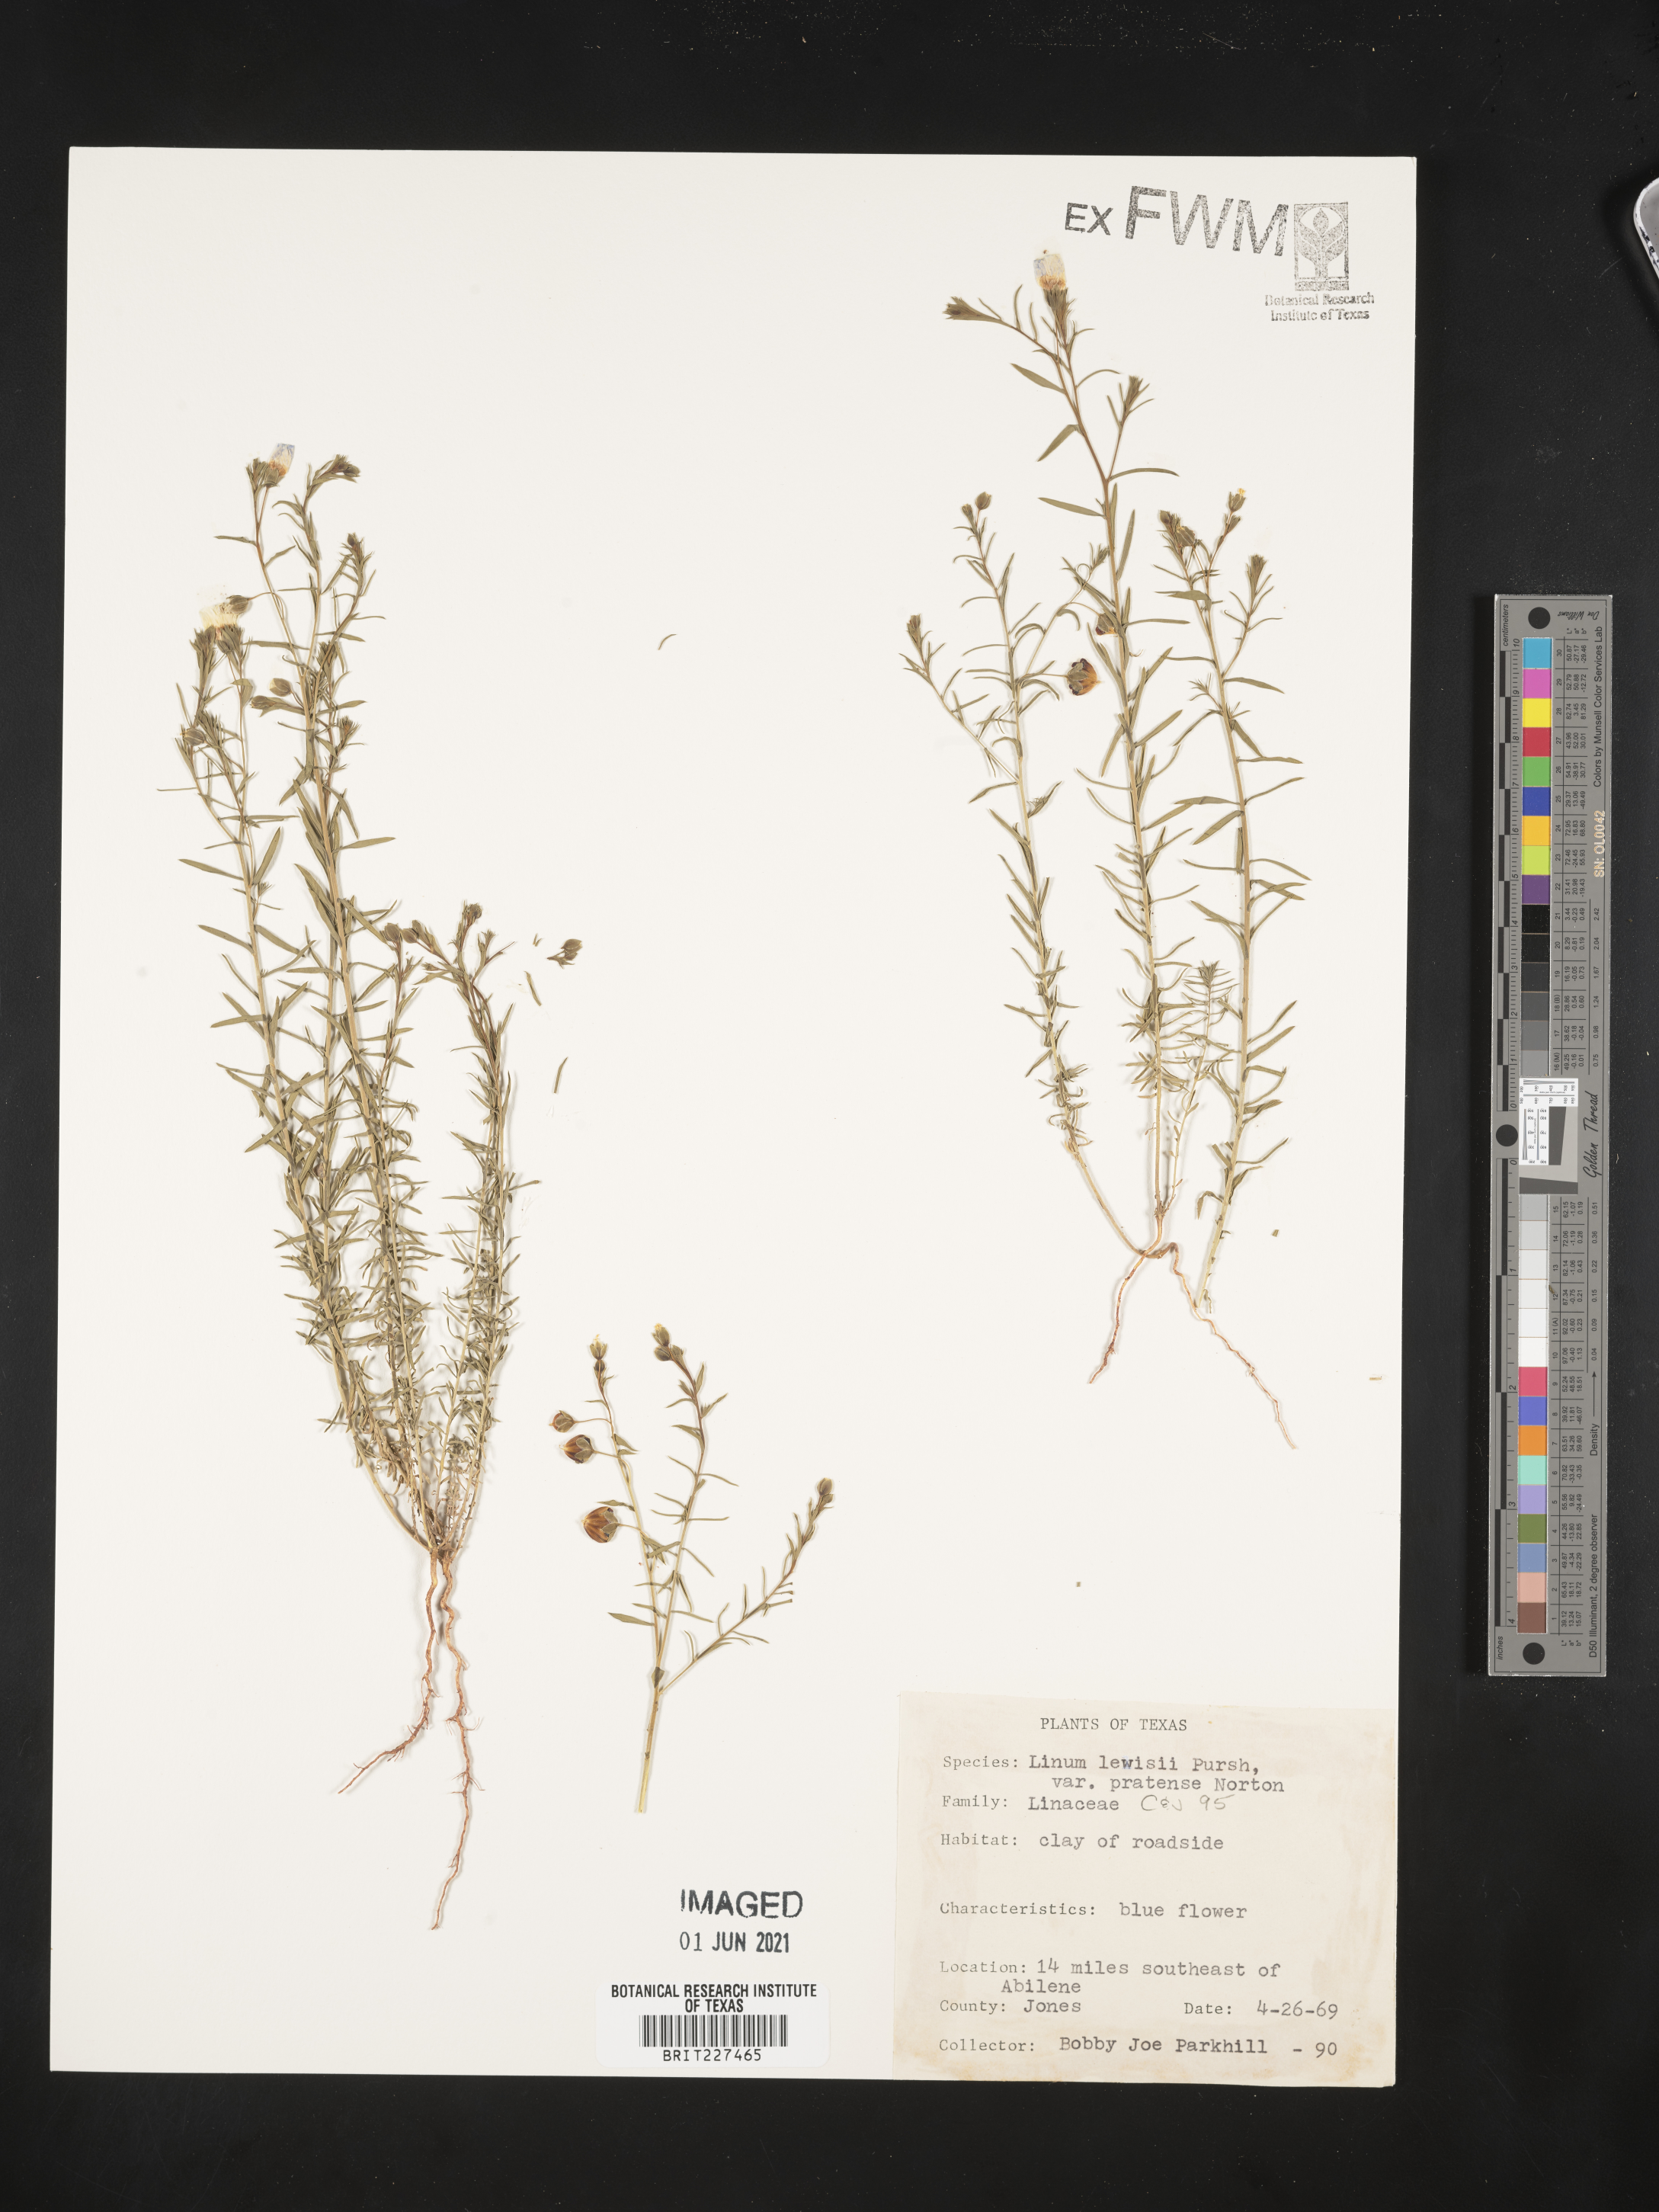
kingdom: Plantae
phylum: Tracheophyta
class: Magnoliopsida
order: Malpighiales
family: Linaceae
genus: Linum
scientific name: Linum pratense
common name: Norton's flax
